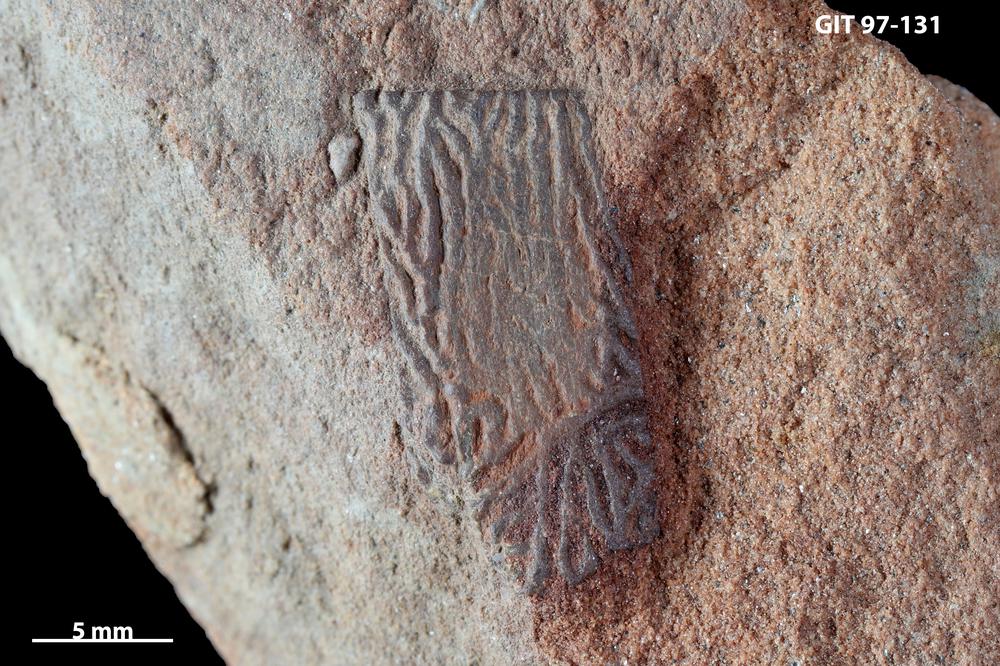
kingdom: Animalia
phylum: Chordata
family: Holonematidae
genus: Holonema
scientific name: Holonema
